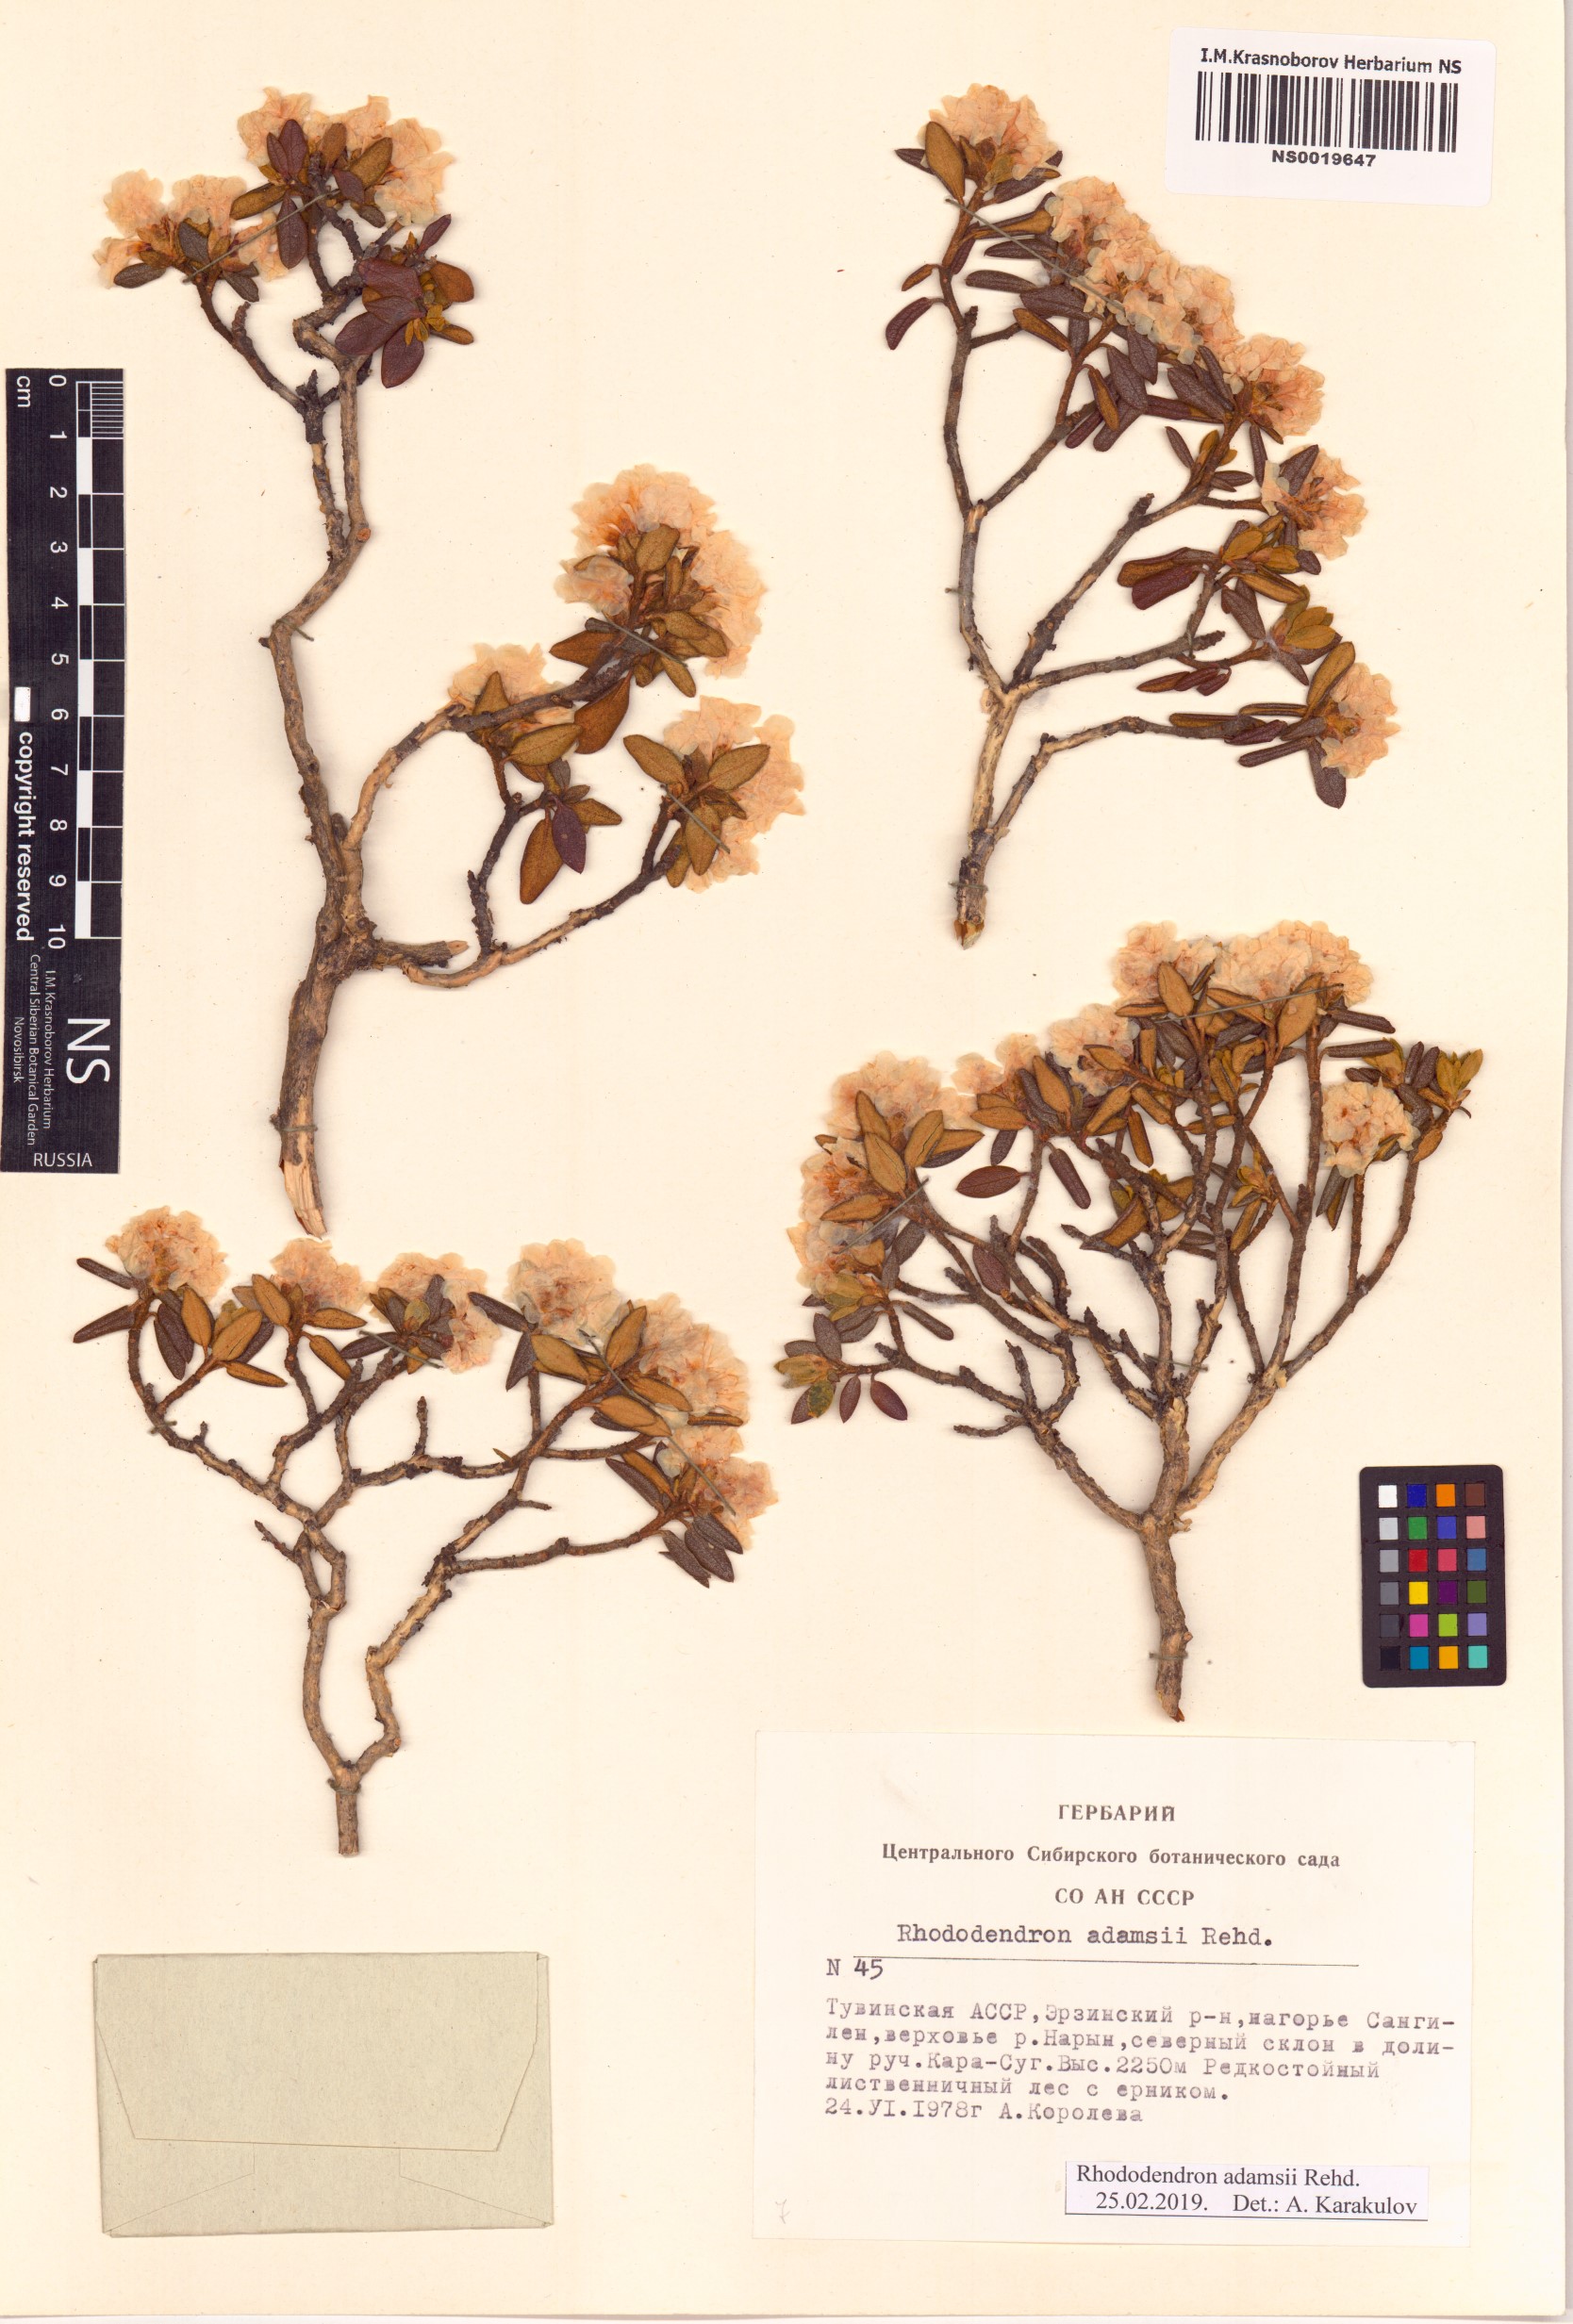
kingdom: Plantae
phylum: Tracheophyta
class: Magnoliopsida
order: Ericales
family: Ericaceae
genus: Rhododendron
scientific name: Rhododendron adamsii
